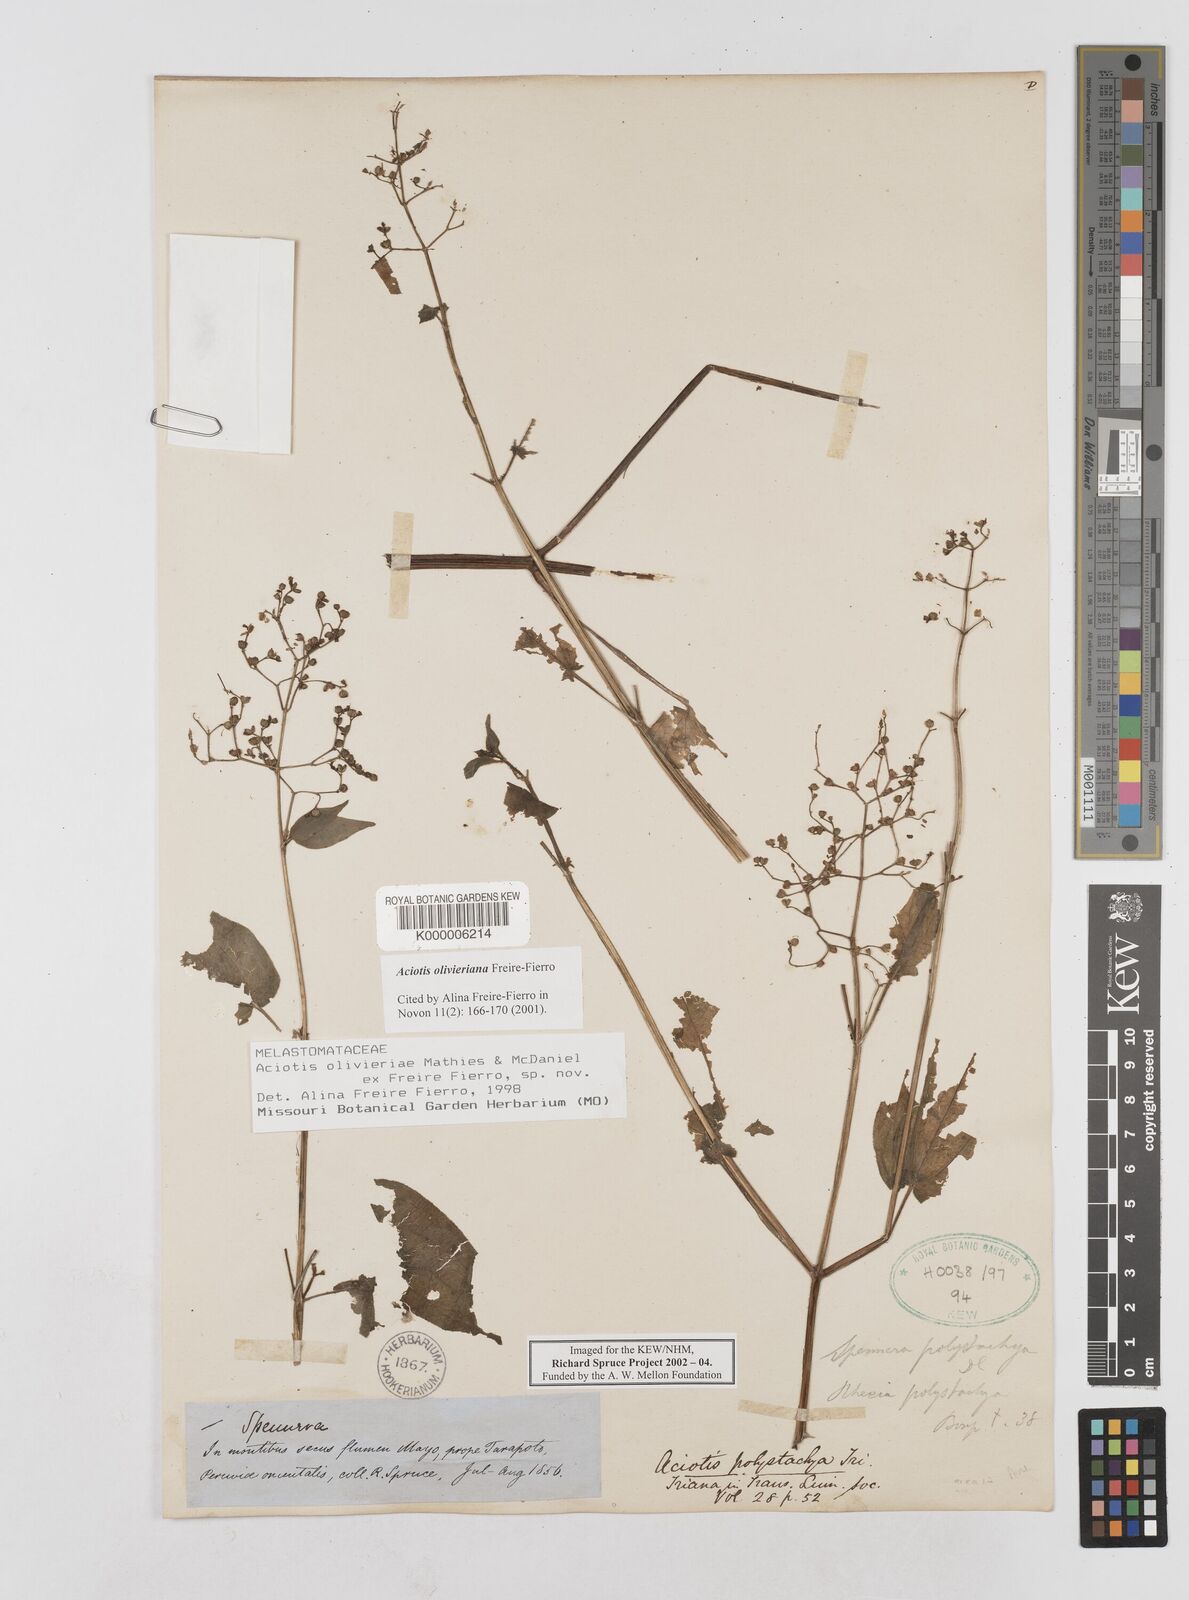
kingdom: Plantae
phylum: Tracheophyta
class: Magnoliopsida
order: Myrtales
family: Melastomataceae
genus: Aciotis
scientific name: Aciotis olivieriana
